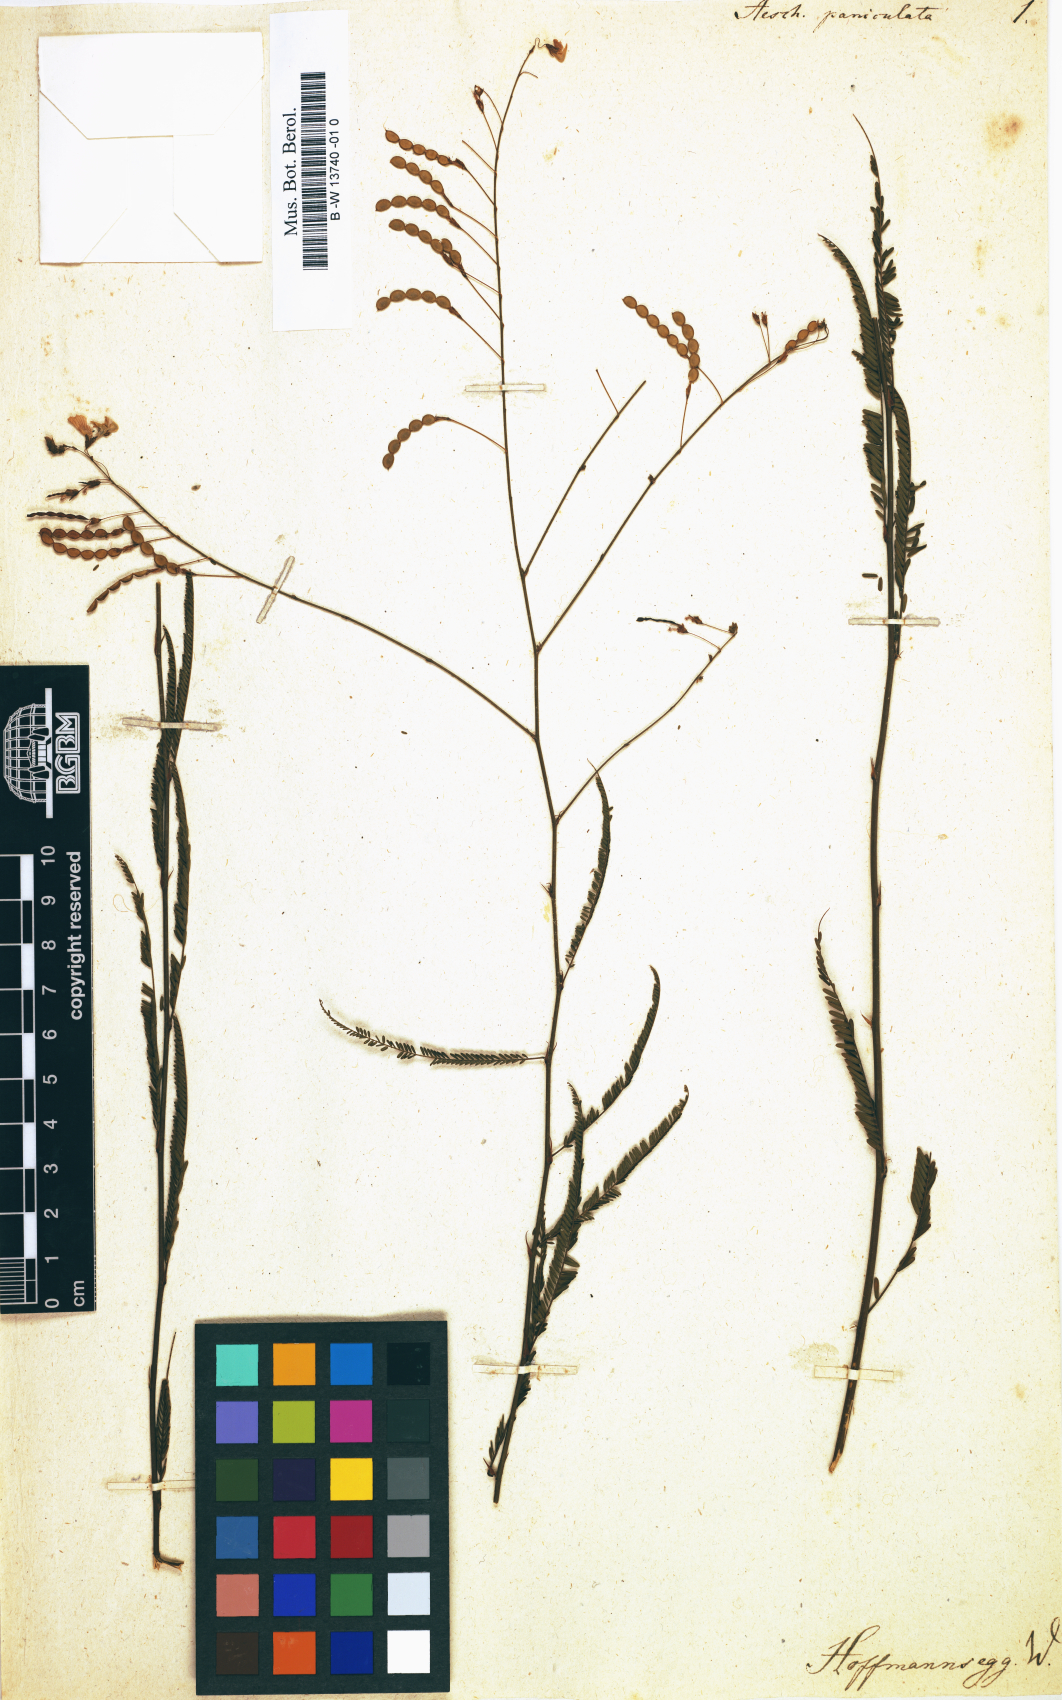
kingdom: Plantae
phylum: Tracheophyta
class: Magnoliopsida
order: Fabales
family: Fabaceae
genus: Ctenodon
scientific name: Ctenodon paniculatus
